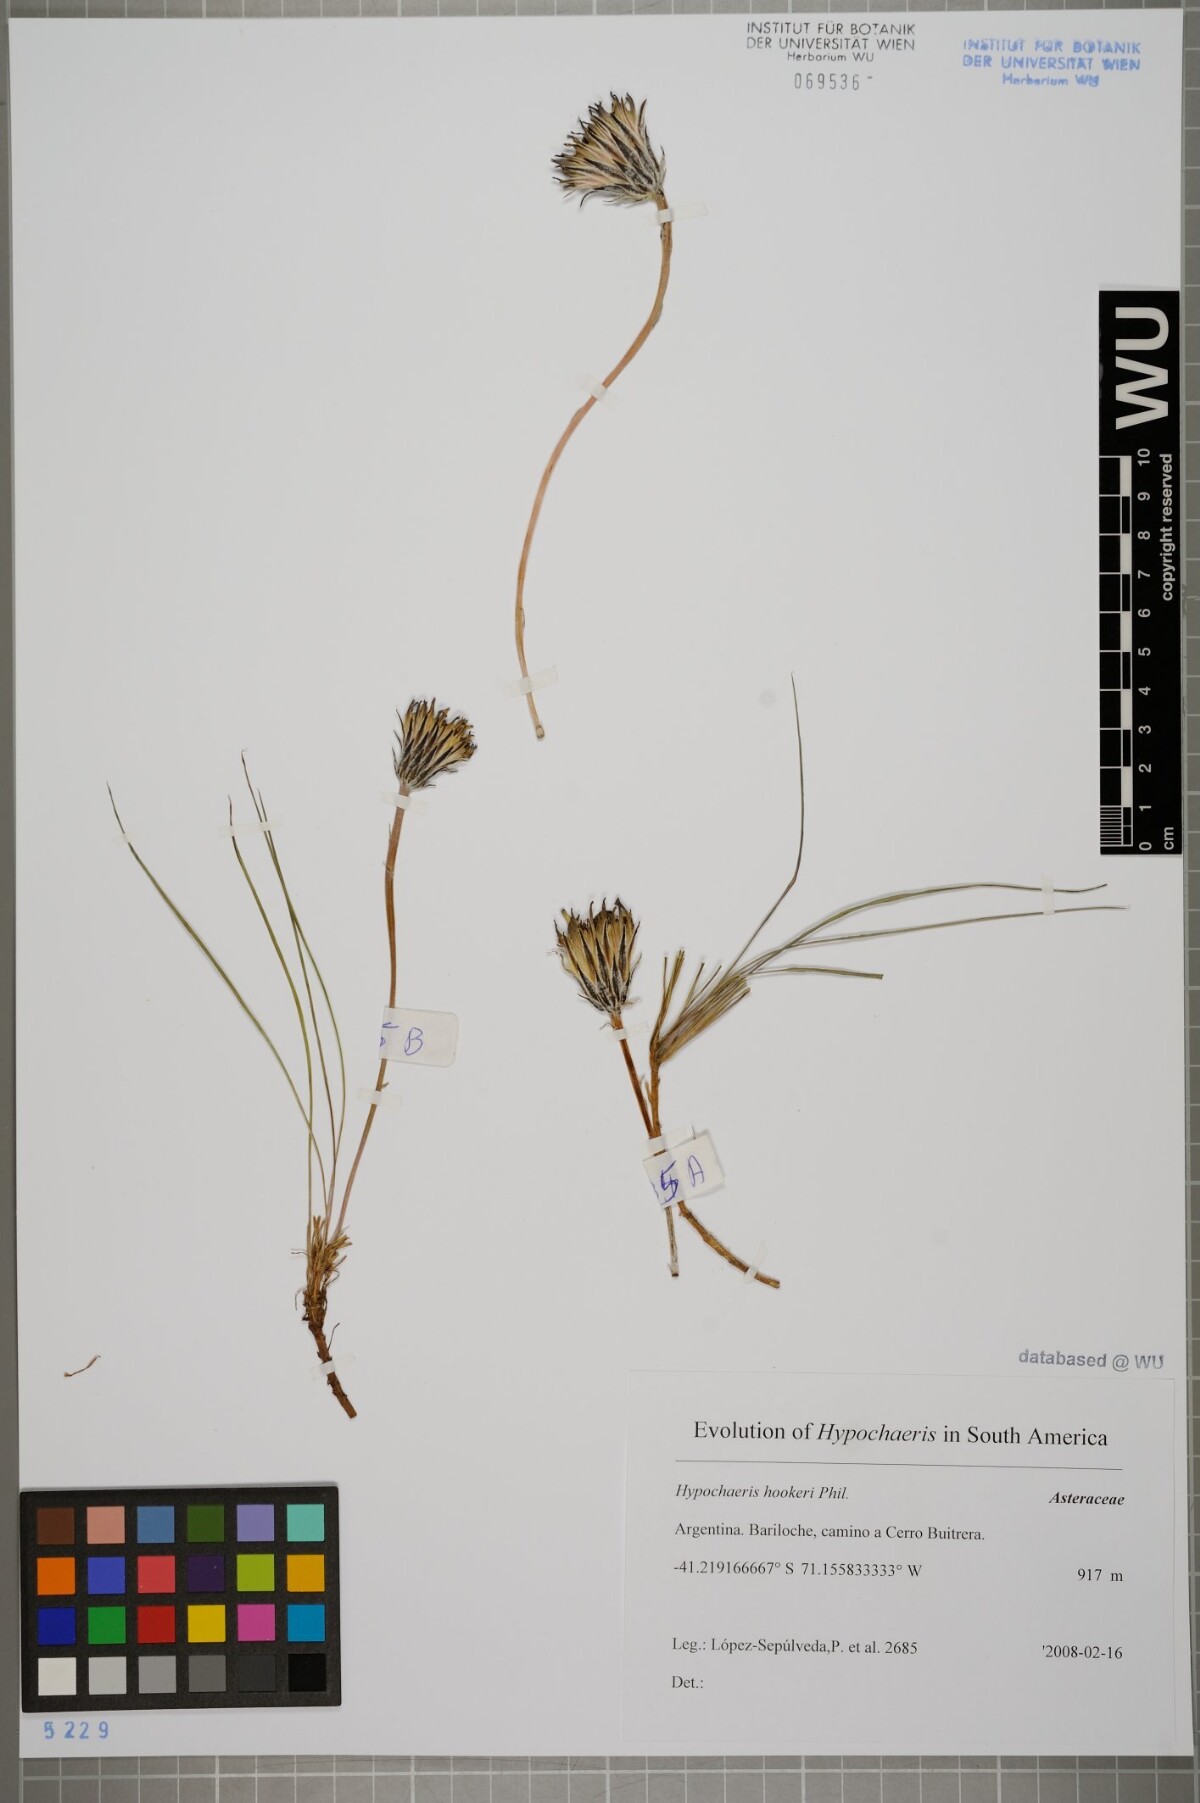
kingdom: Plantae
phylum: Tracheophyta
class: Magnoliopsida
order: Asterales
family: Asteraceae
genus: Hypochaeris
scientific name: Hypochaeris hookeri
